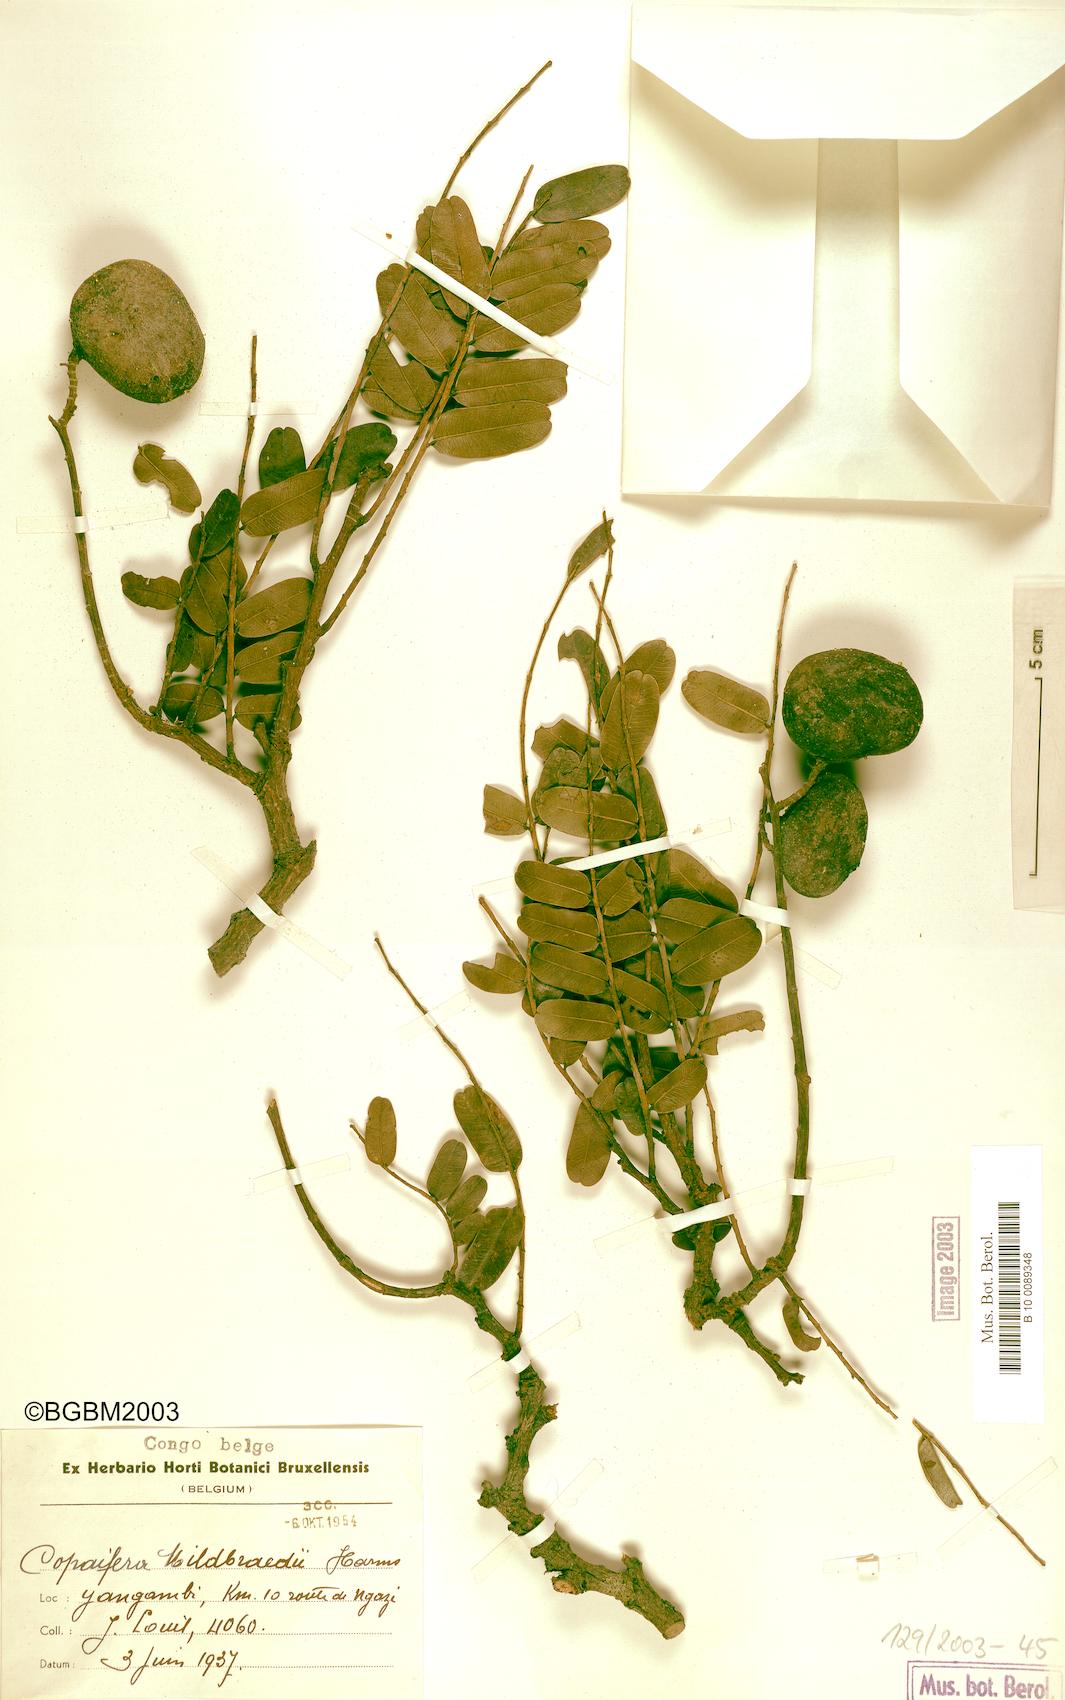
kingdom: Plantae
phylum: Tracheophyta
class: Magnoliopsida
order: Fabales
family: Fabaceae
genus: Copaifera
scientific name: Copaifera mildbraedii
